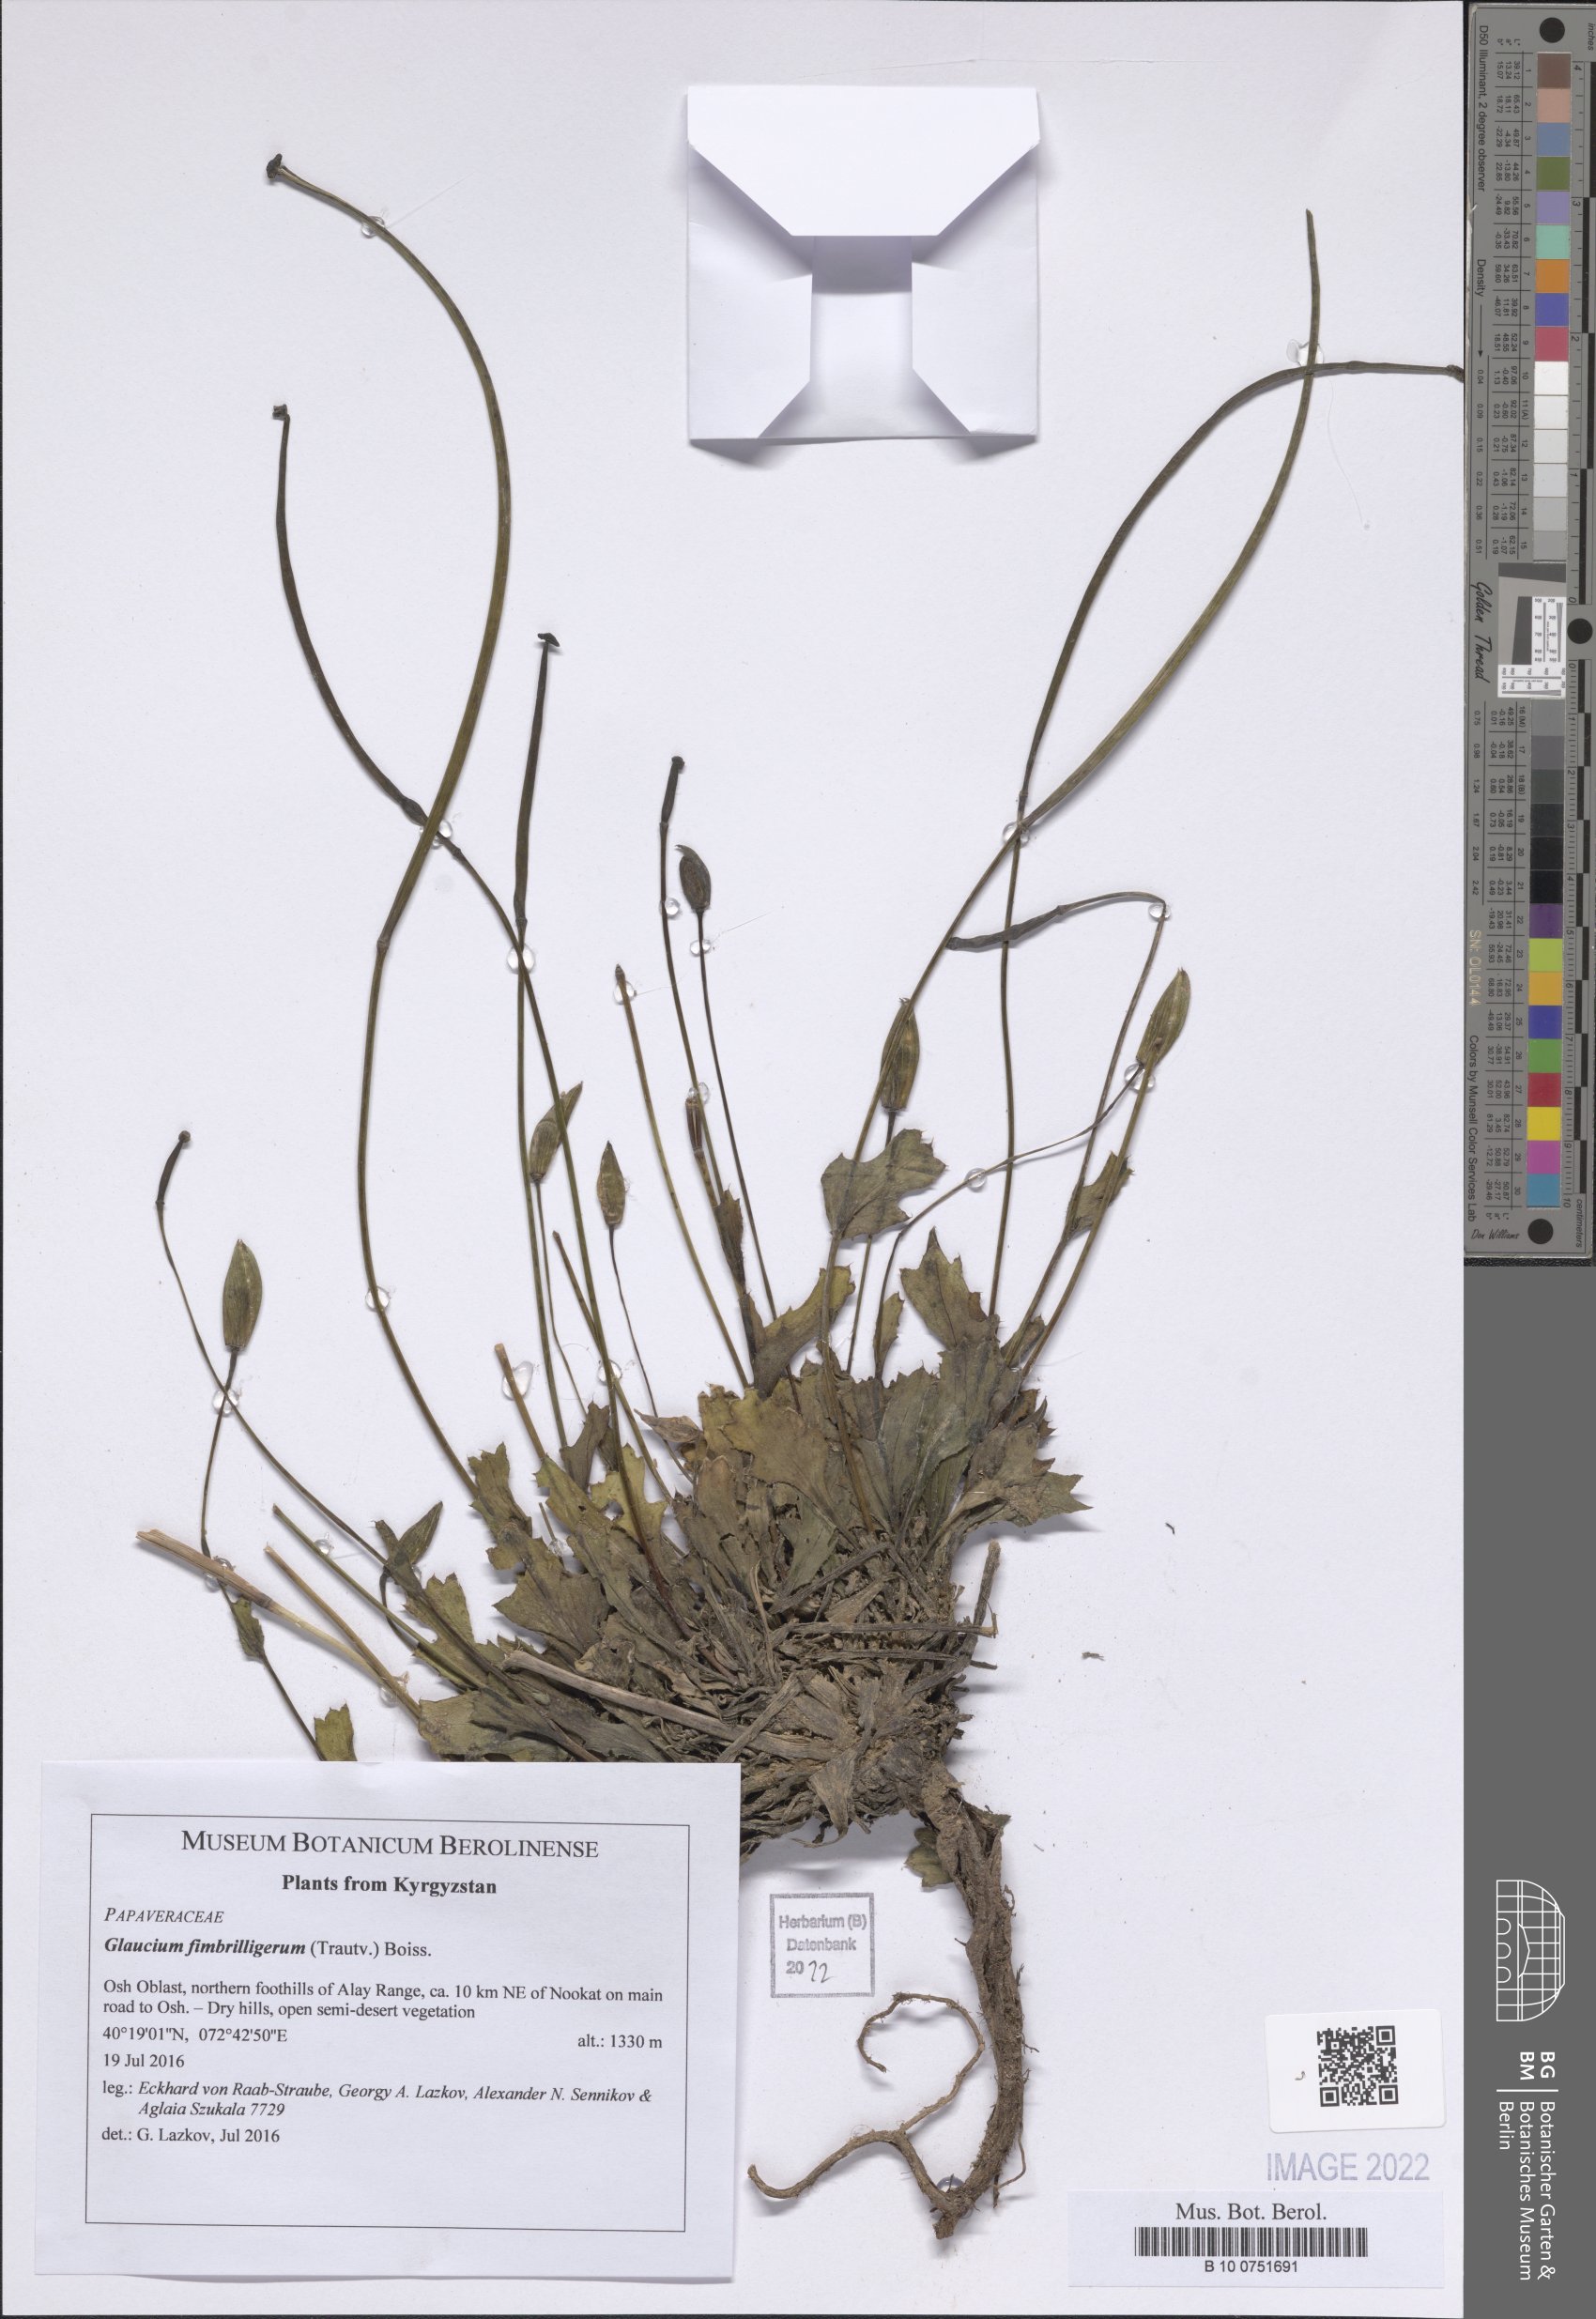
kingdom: Plantae
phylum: Tracheophyta
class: Magnoliopsida
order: Ranunculales
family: Papaveraceae
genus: Glaucium
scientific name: Glaucium fimbrilligerum
